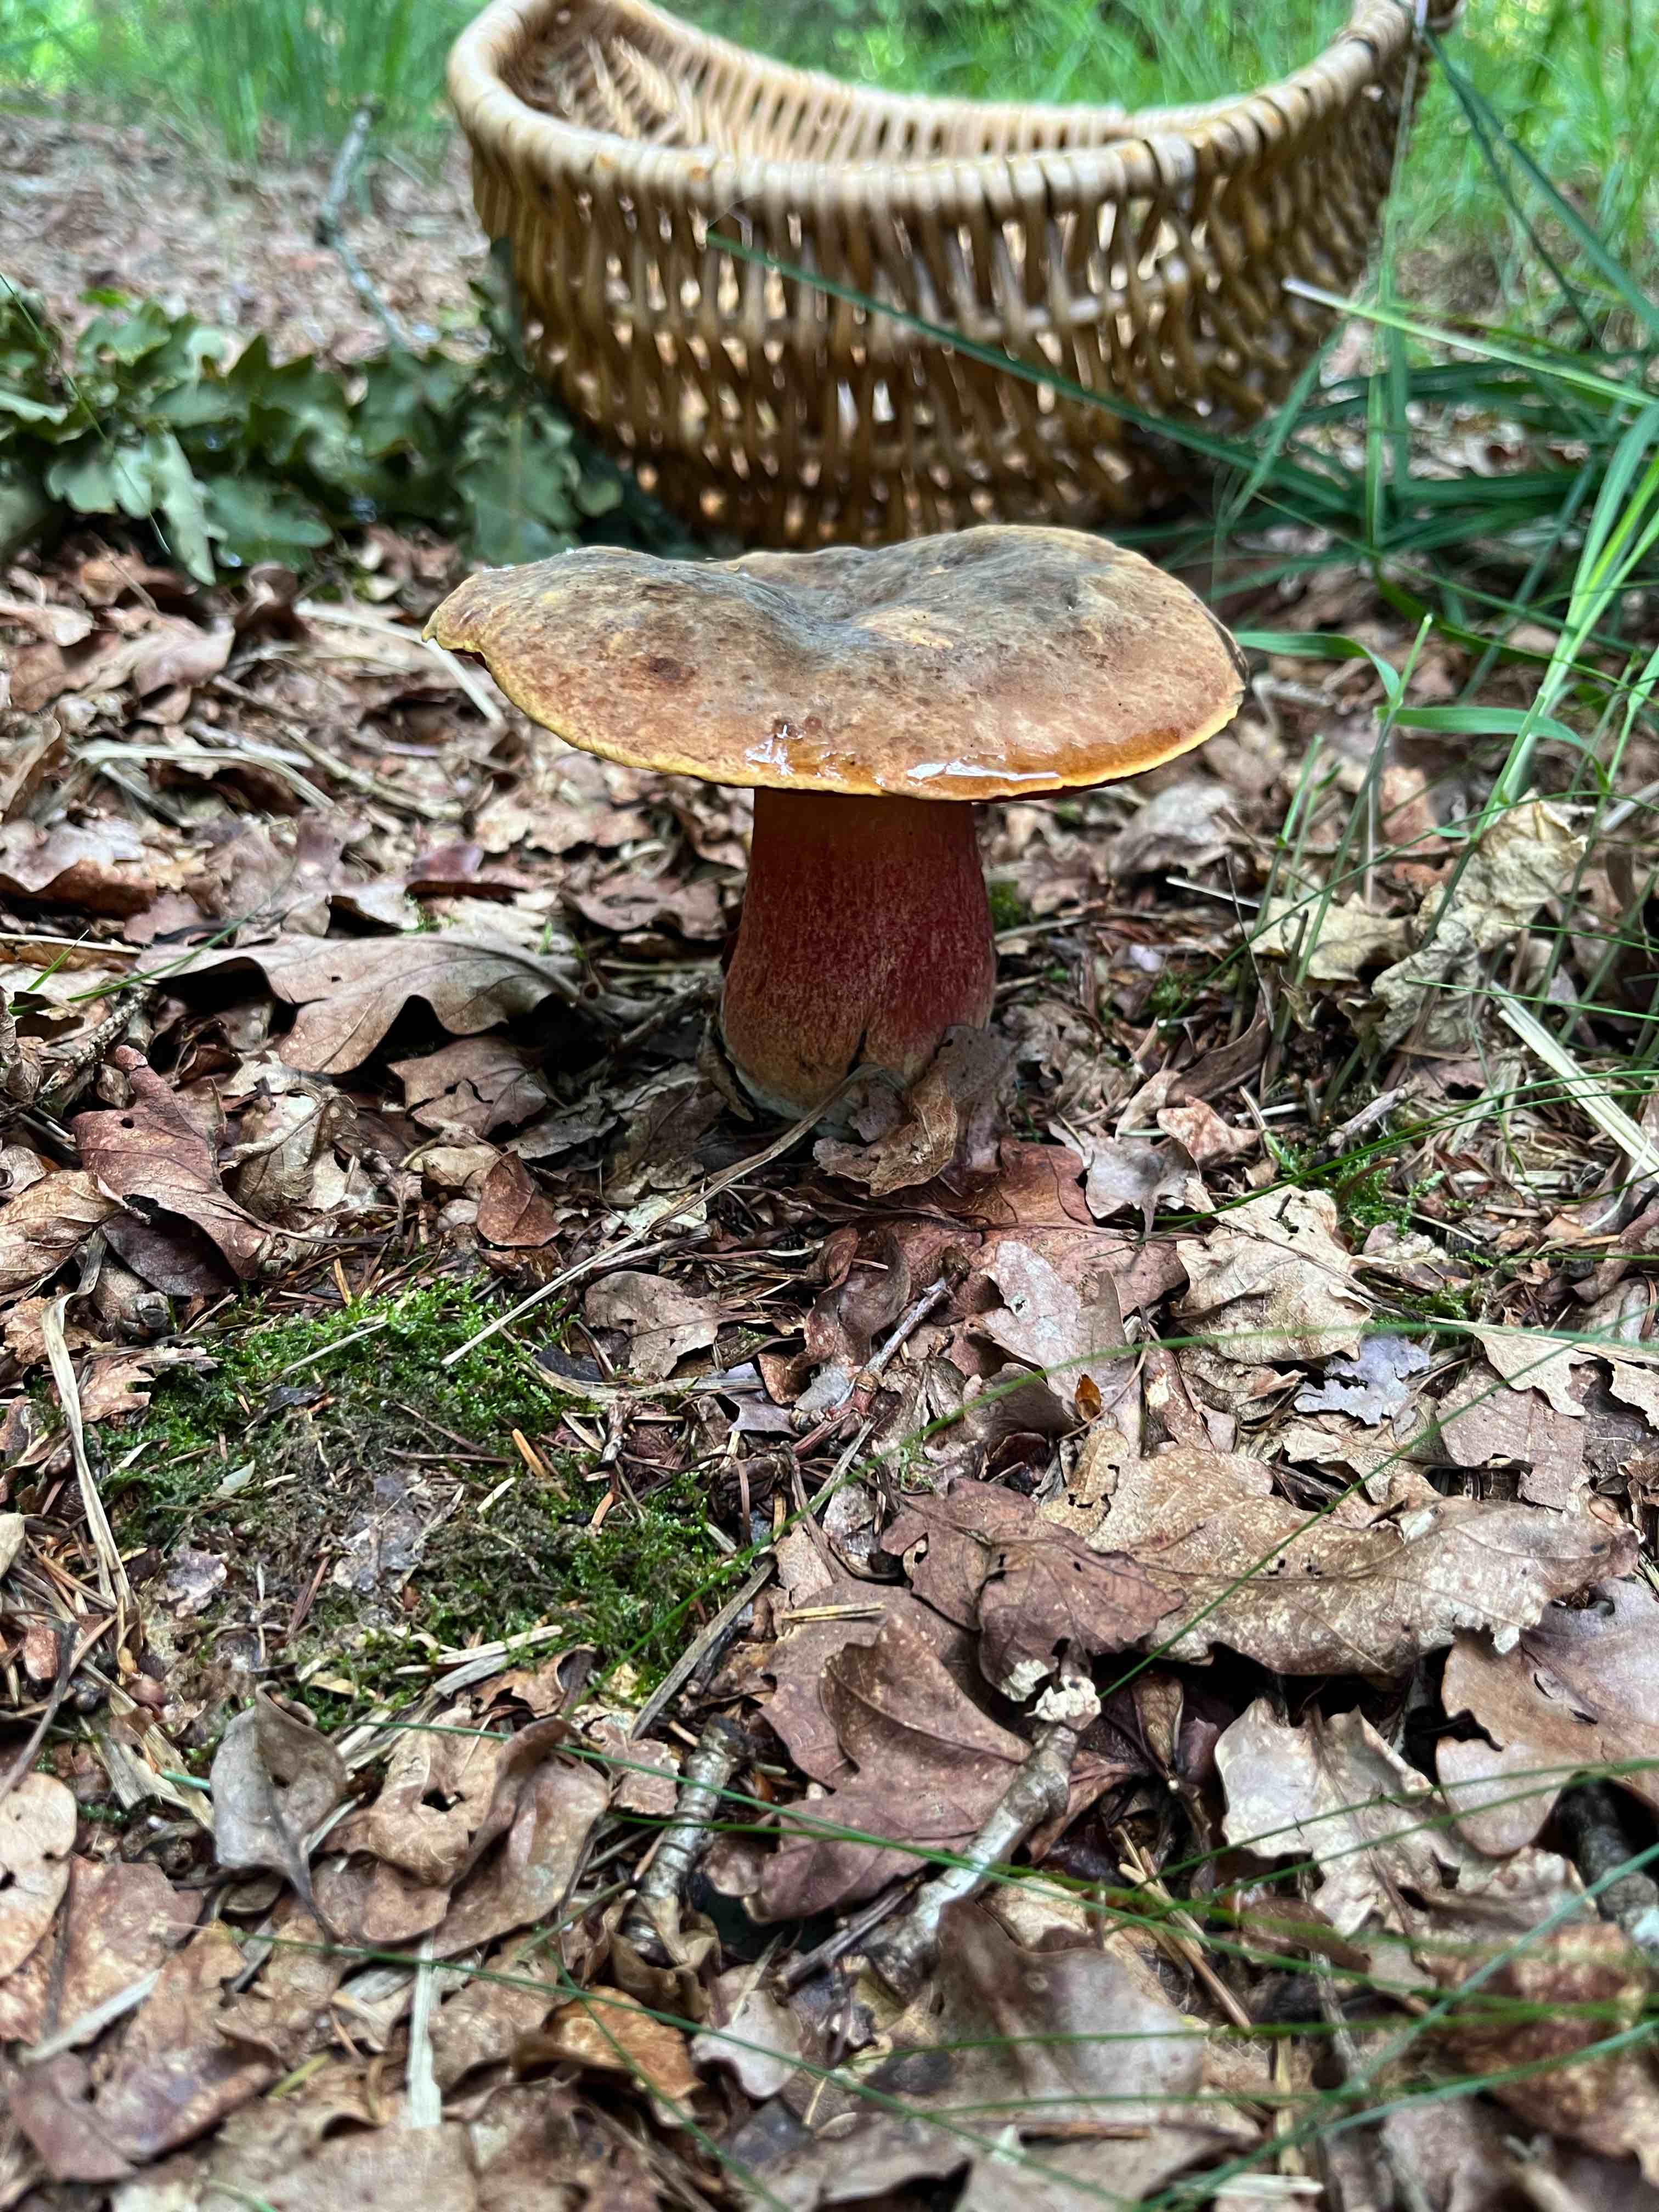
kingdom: Fungi
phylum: Basidiomycota
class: Agaricomycetes
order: Boletales
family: Boletaceae
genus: Neoboletus
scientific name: Neoboletus erythropus
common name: punktstokket indigorørhat
